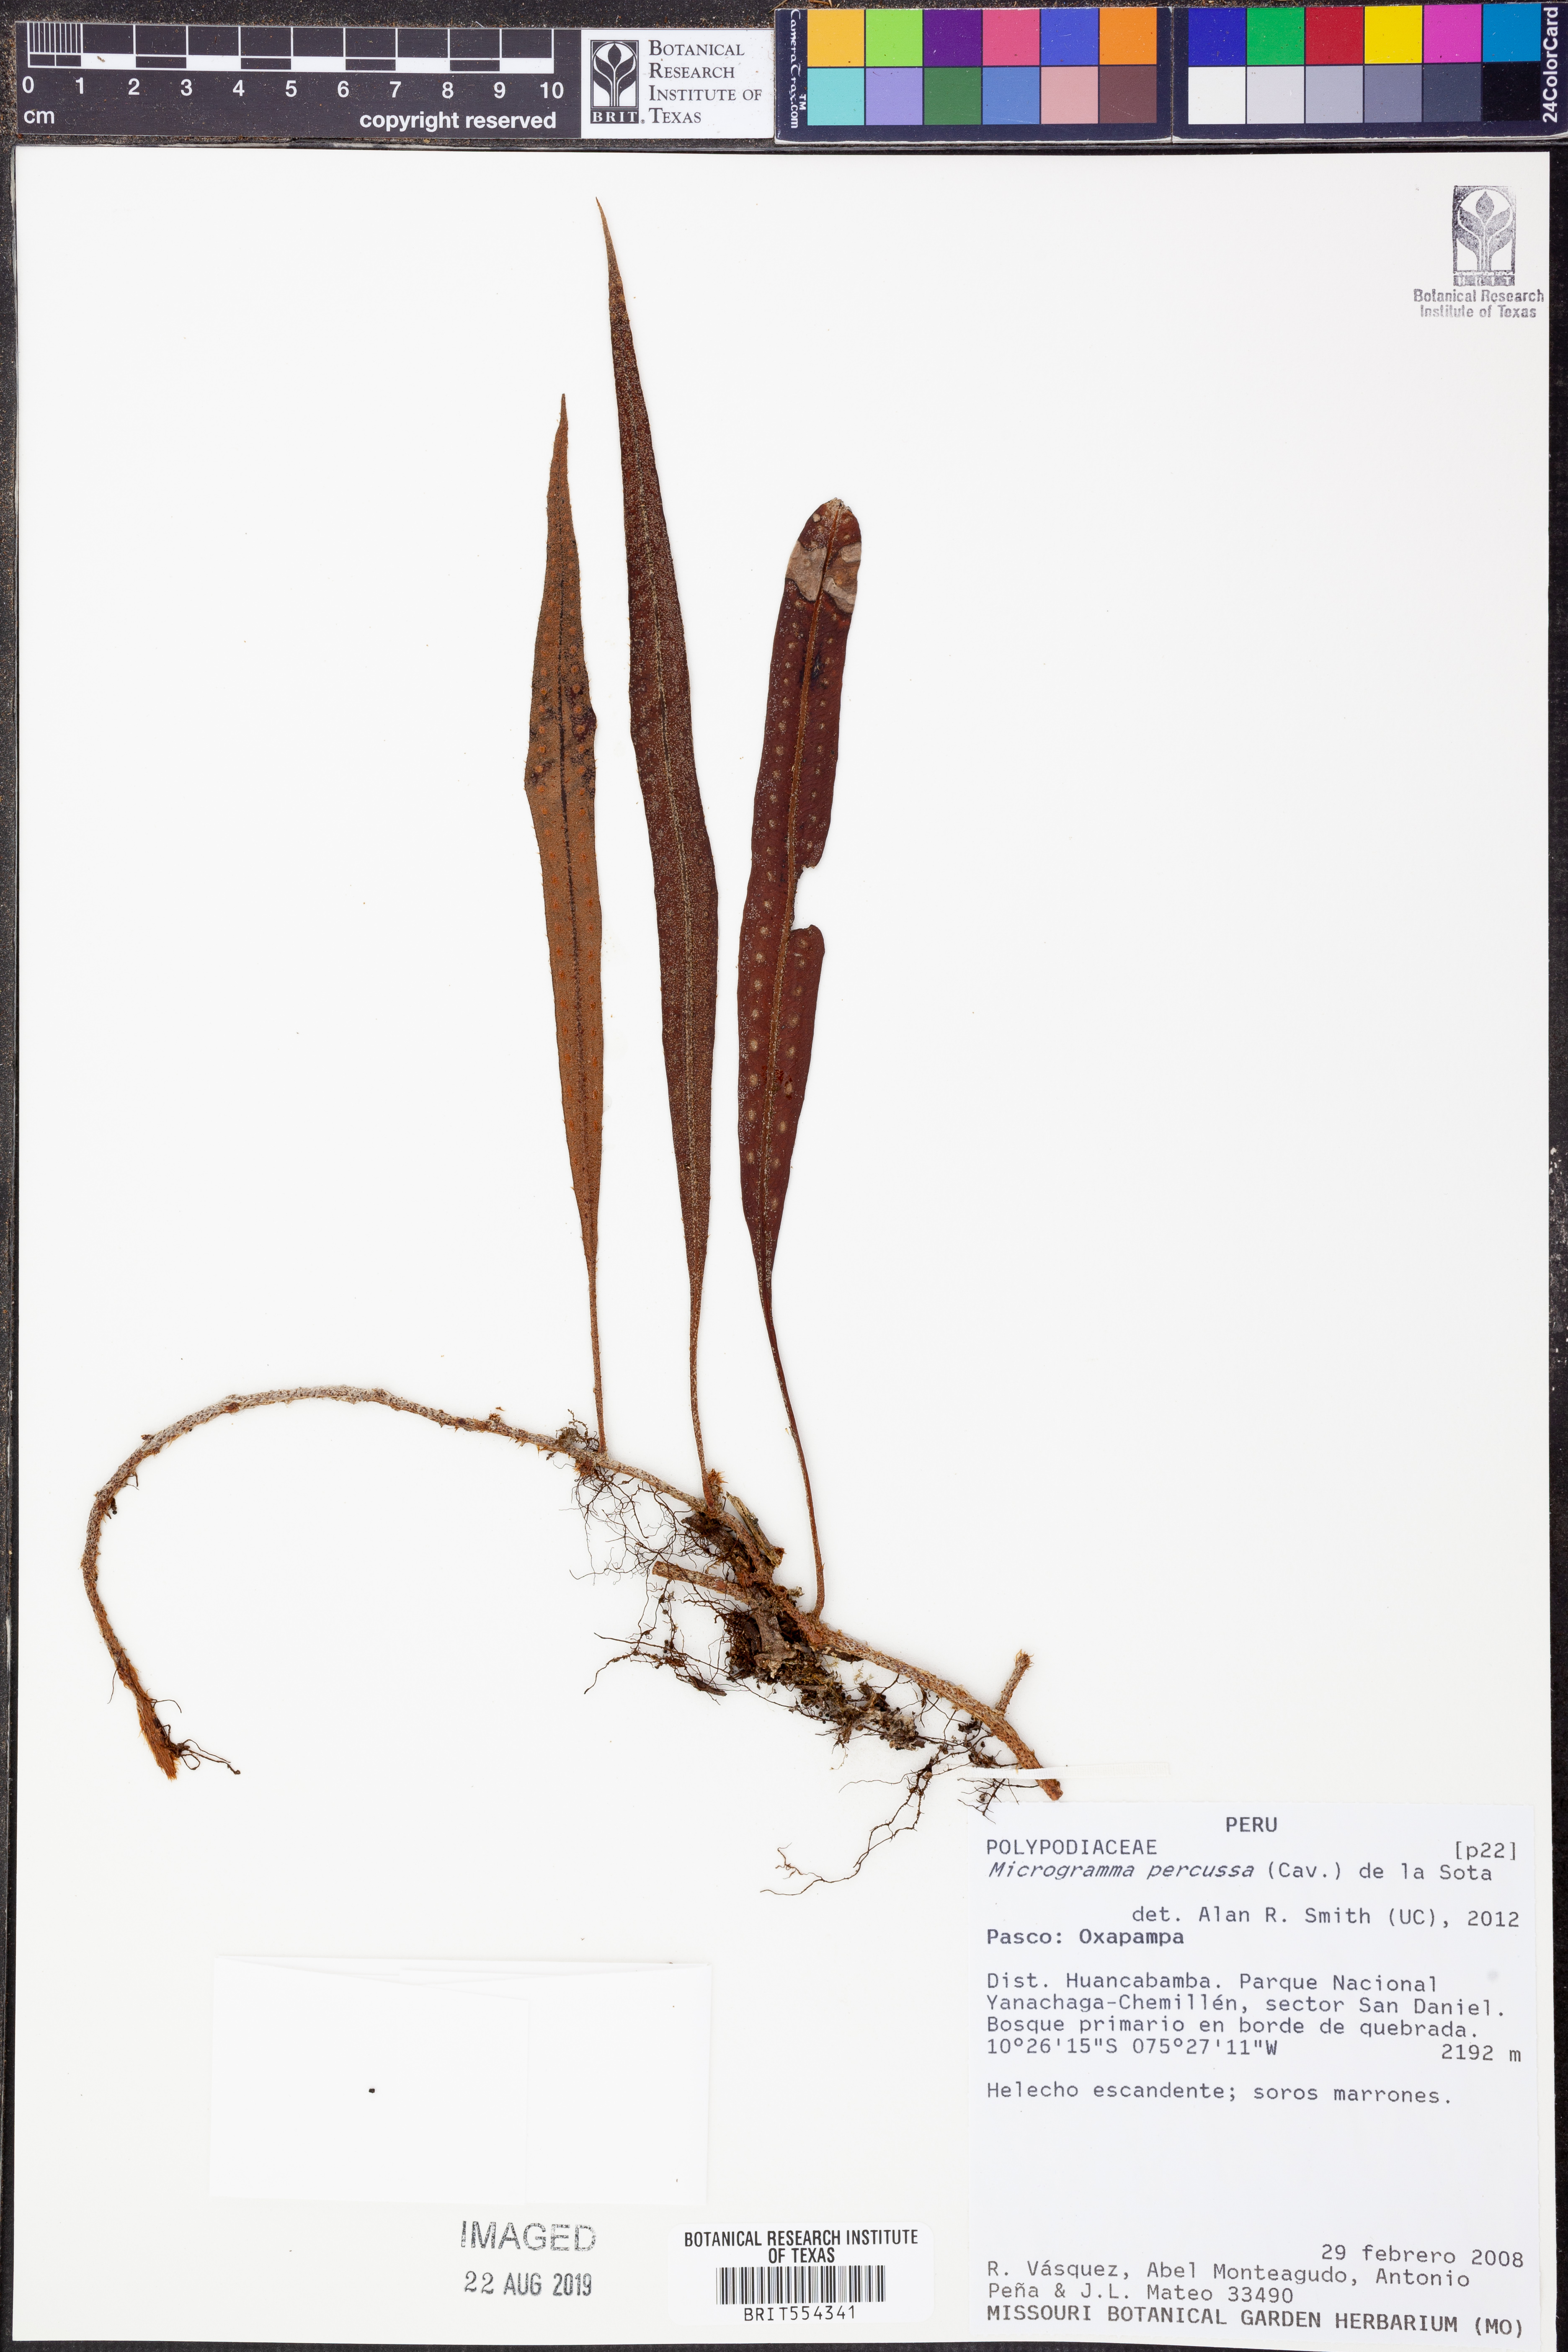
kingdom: Plantae
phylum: Tracheophyta
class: Polypodiopsida
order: Polypodiales
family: Polypodiaceae
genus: Microgramma
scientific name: Microgramma percussa
